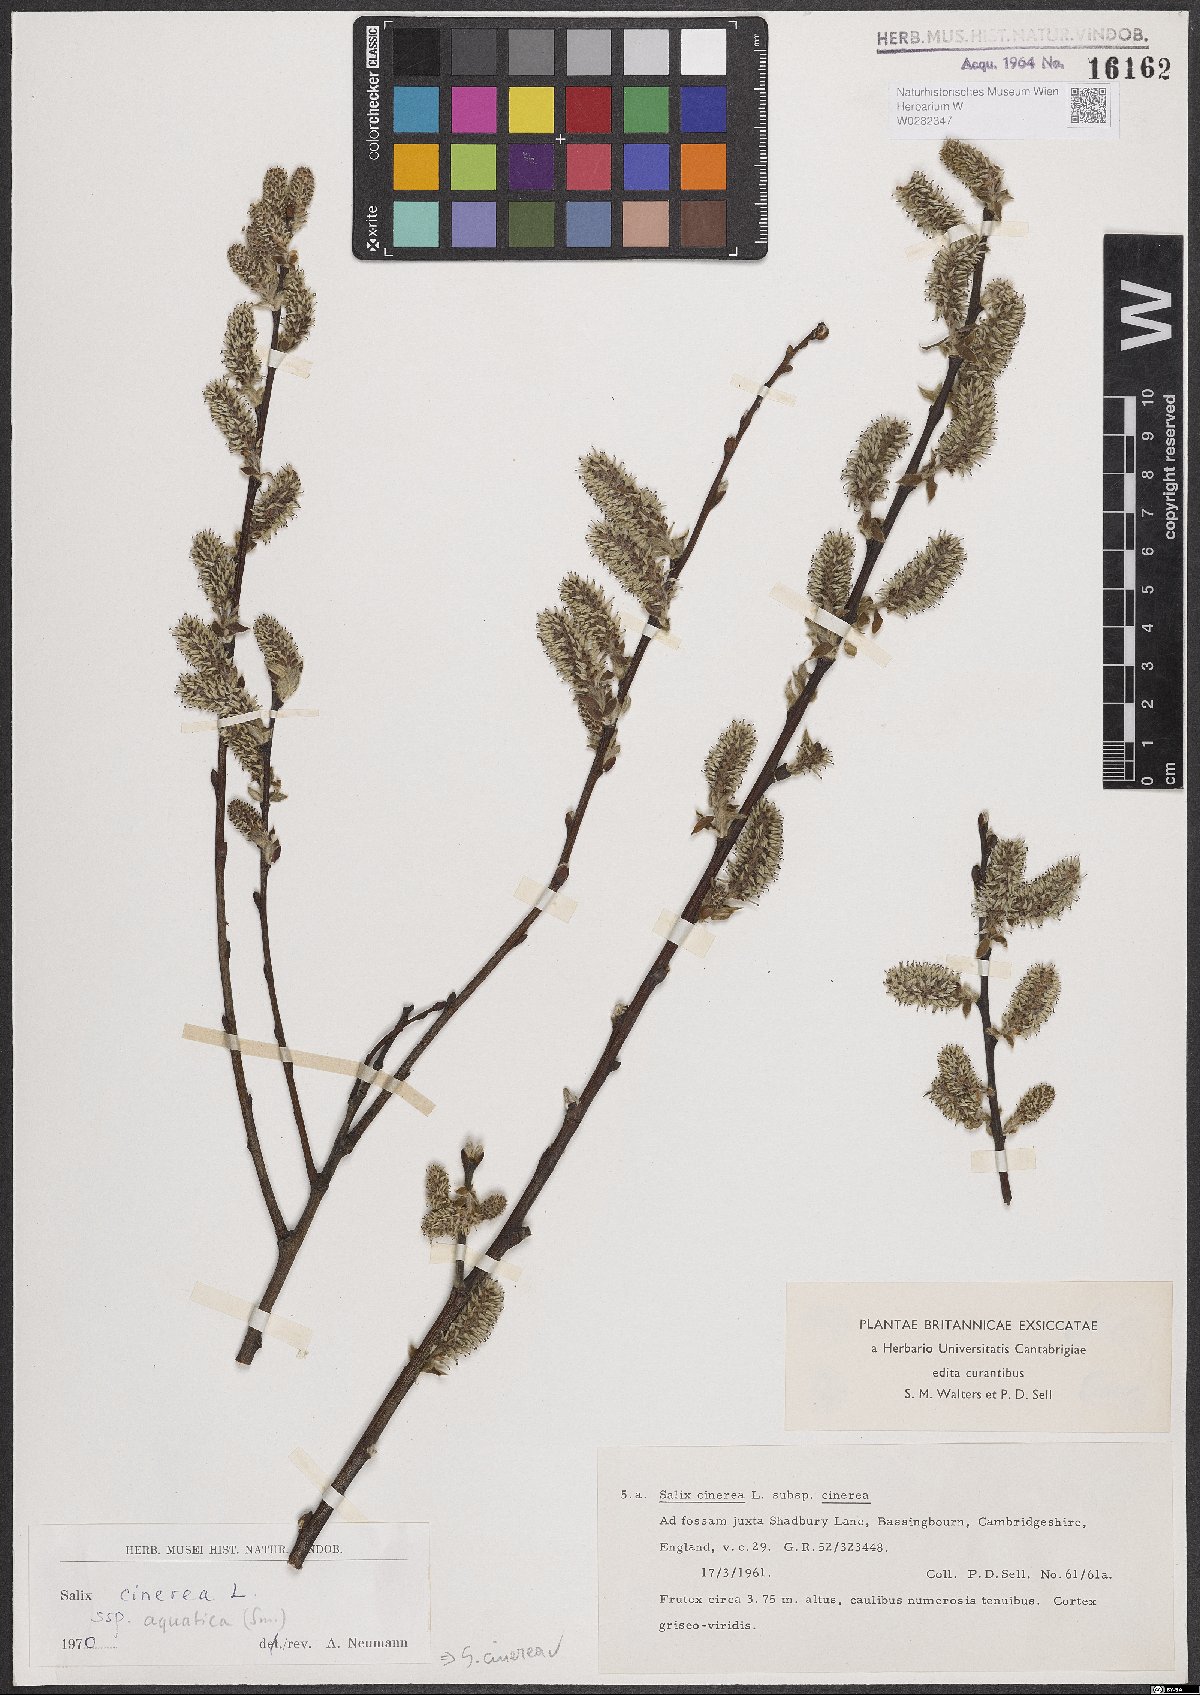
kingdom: Plantae
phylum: Tracheophyta
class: Magnoliopsida
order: Malpighiales
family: Salicaceae
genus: Salix
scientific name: Salix cinerea
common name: Common sallow
